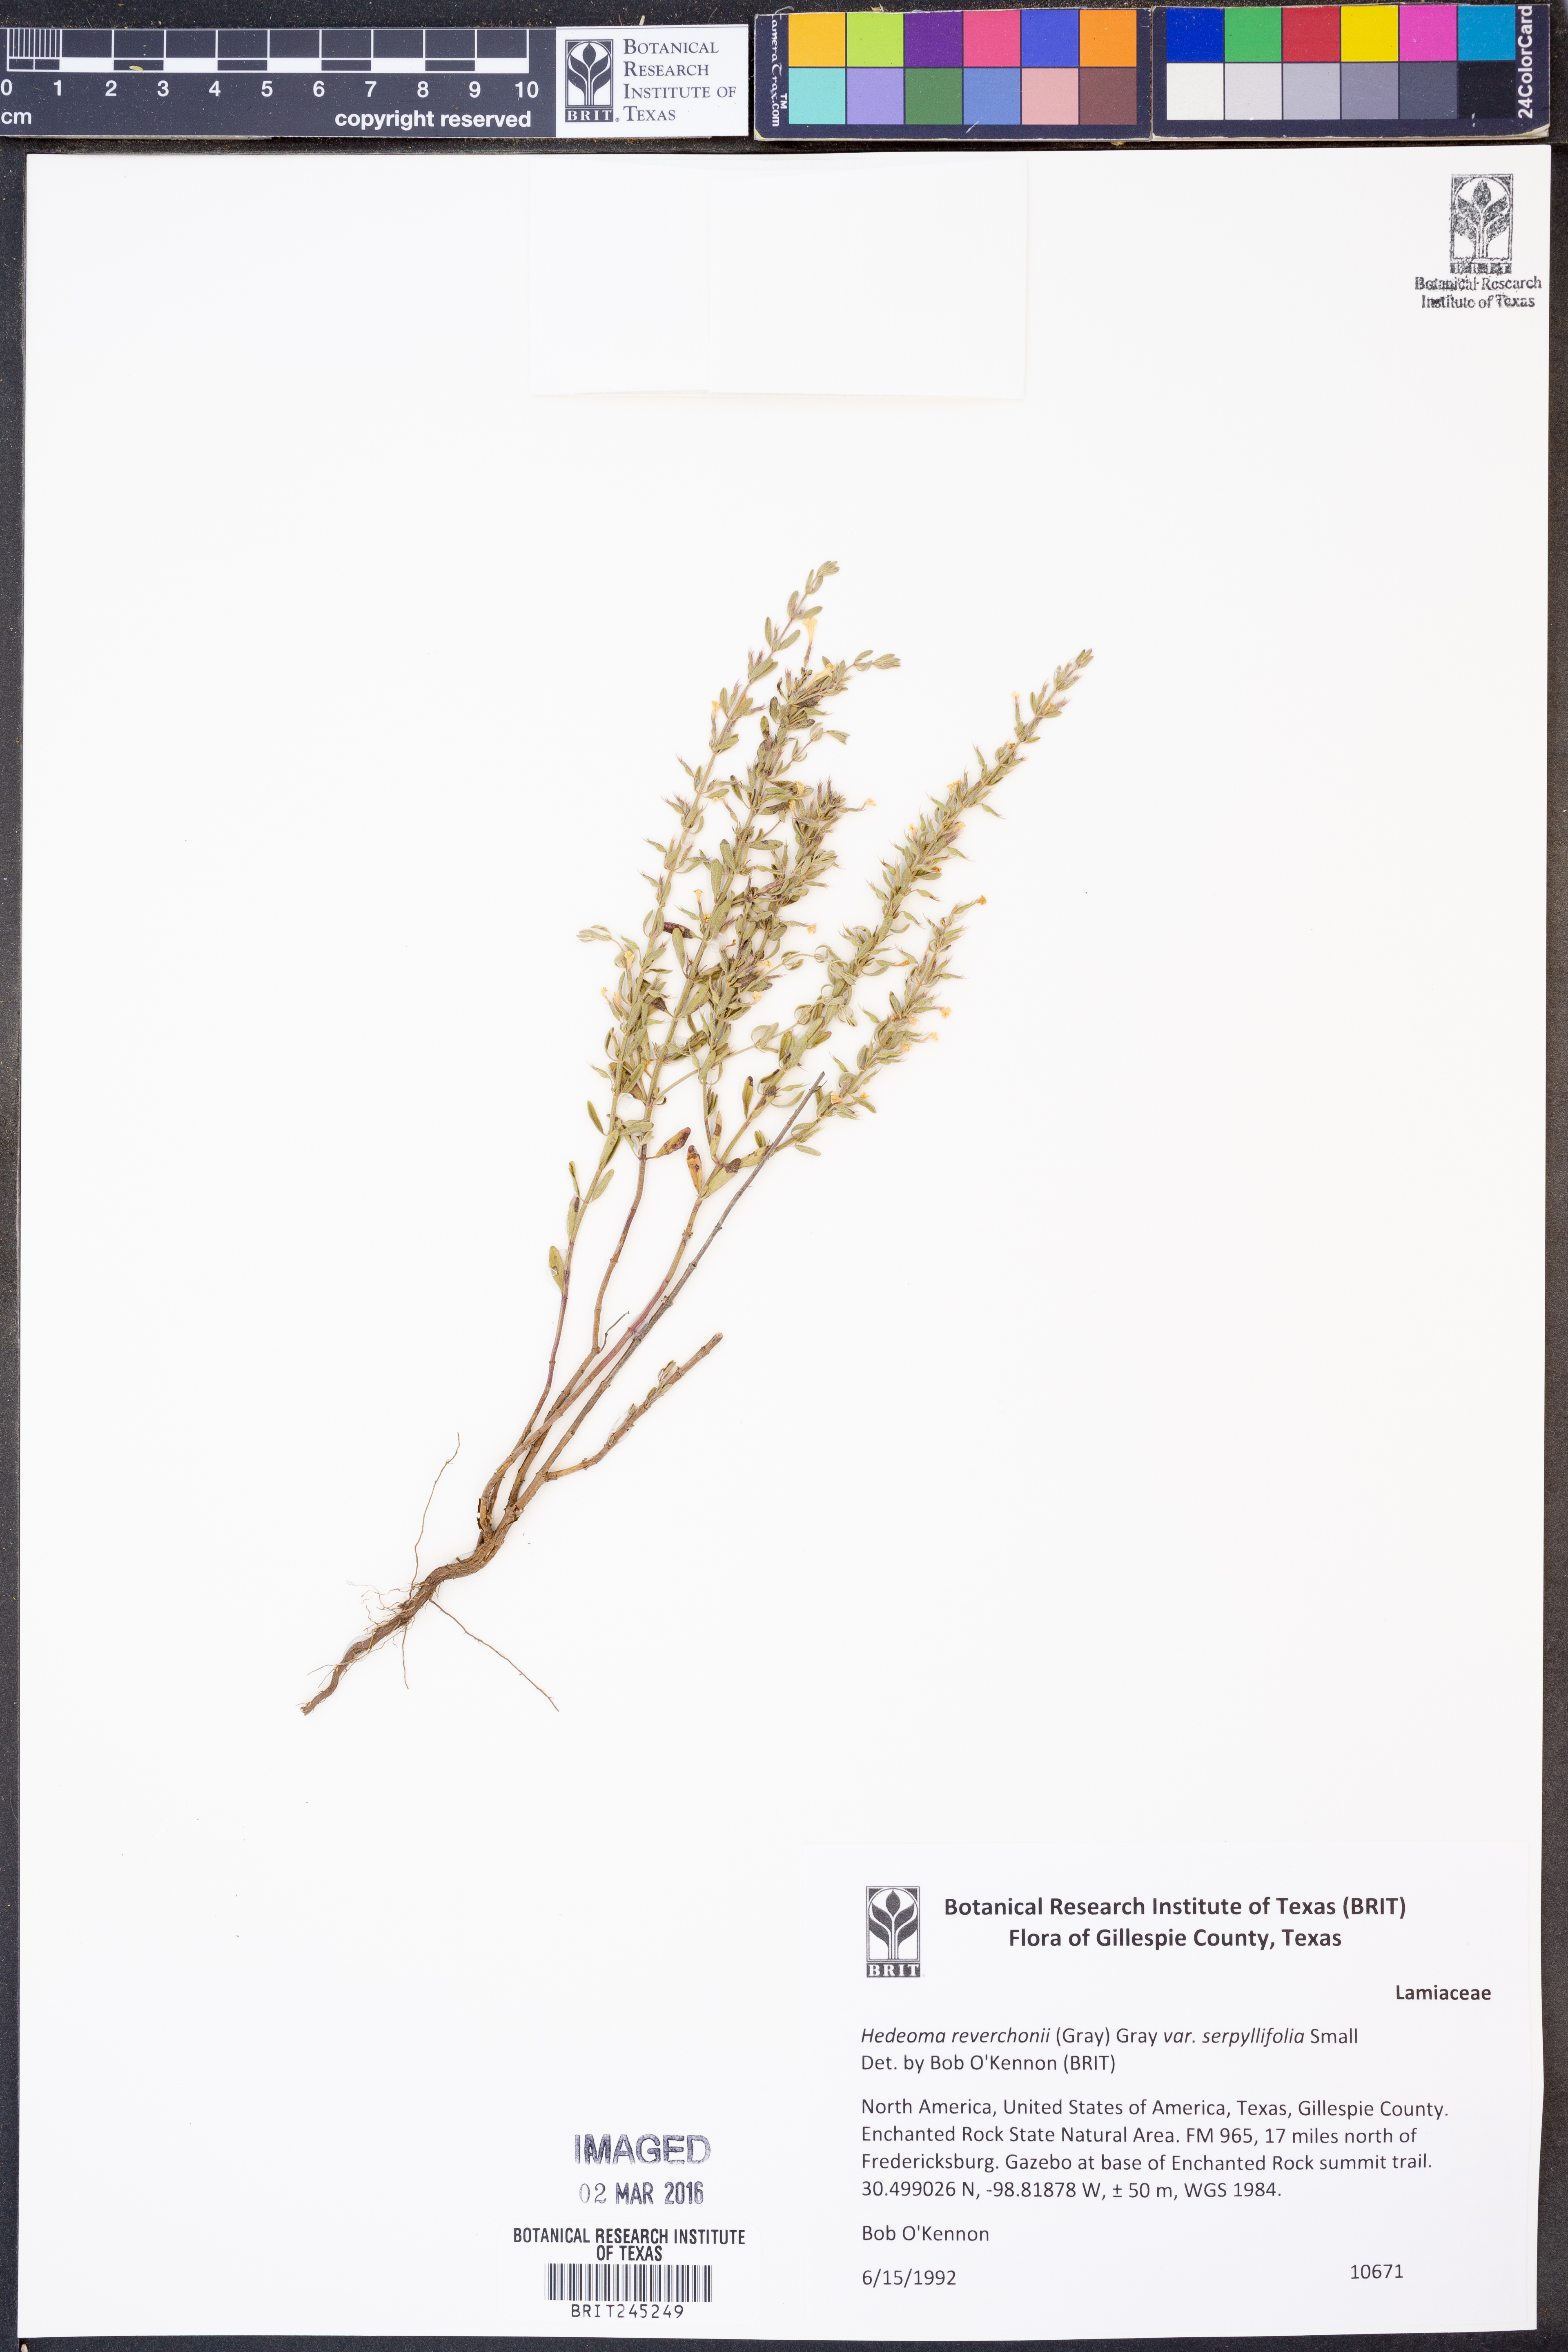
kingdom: Plantae
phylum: Tracheophyta
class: Magnoliopsida
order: Lamiales
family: Lamiaceae
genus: Hedeoma
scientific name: Hedeoma serpyllifolia
